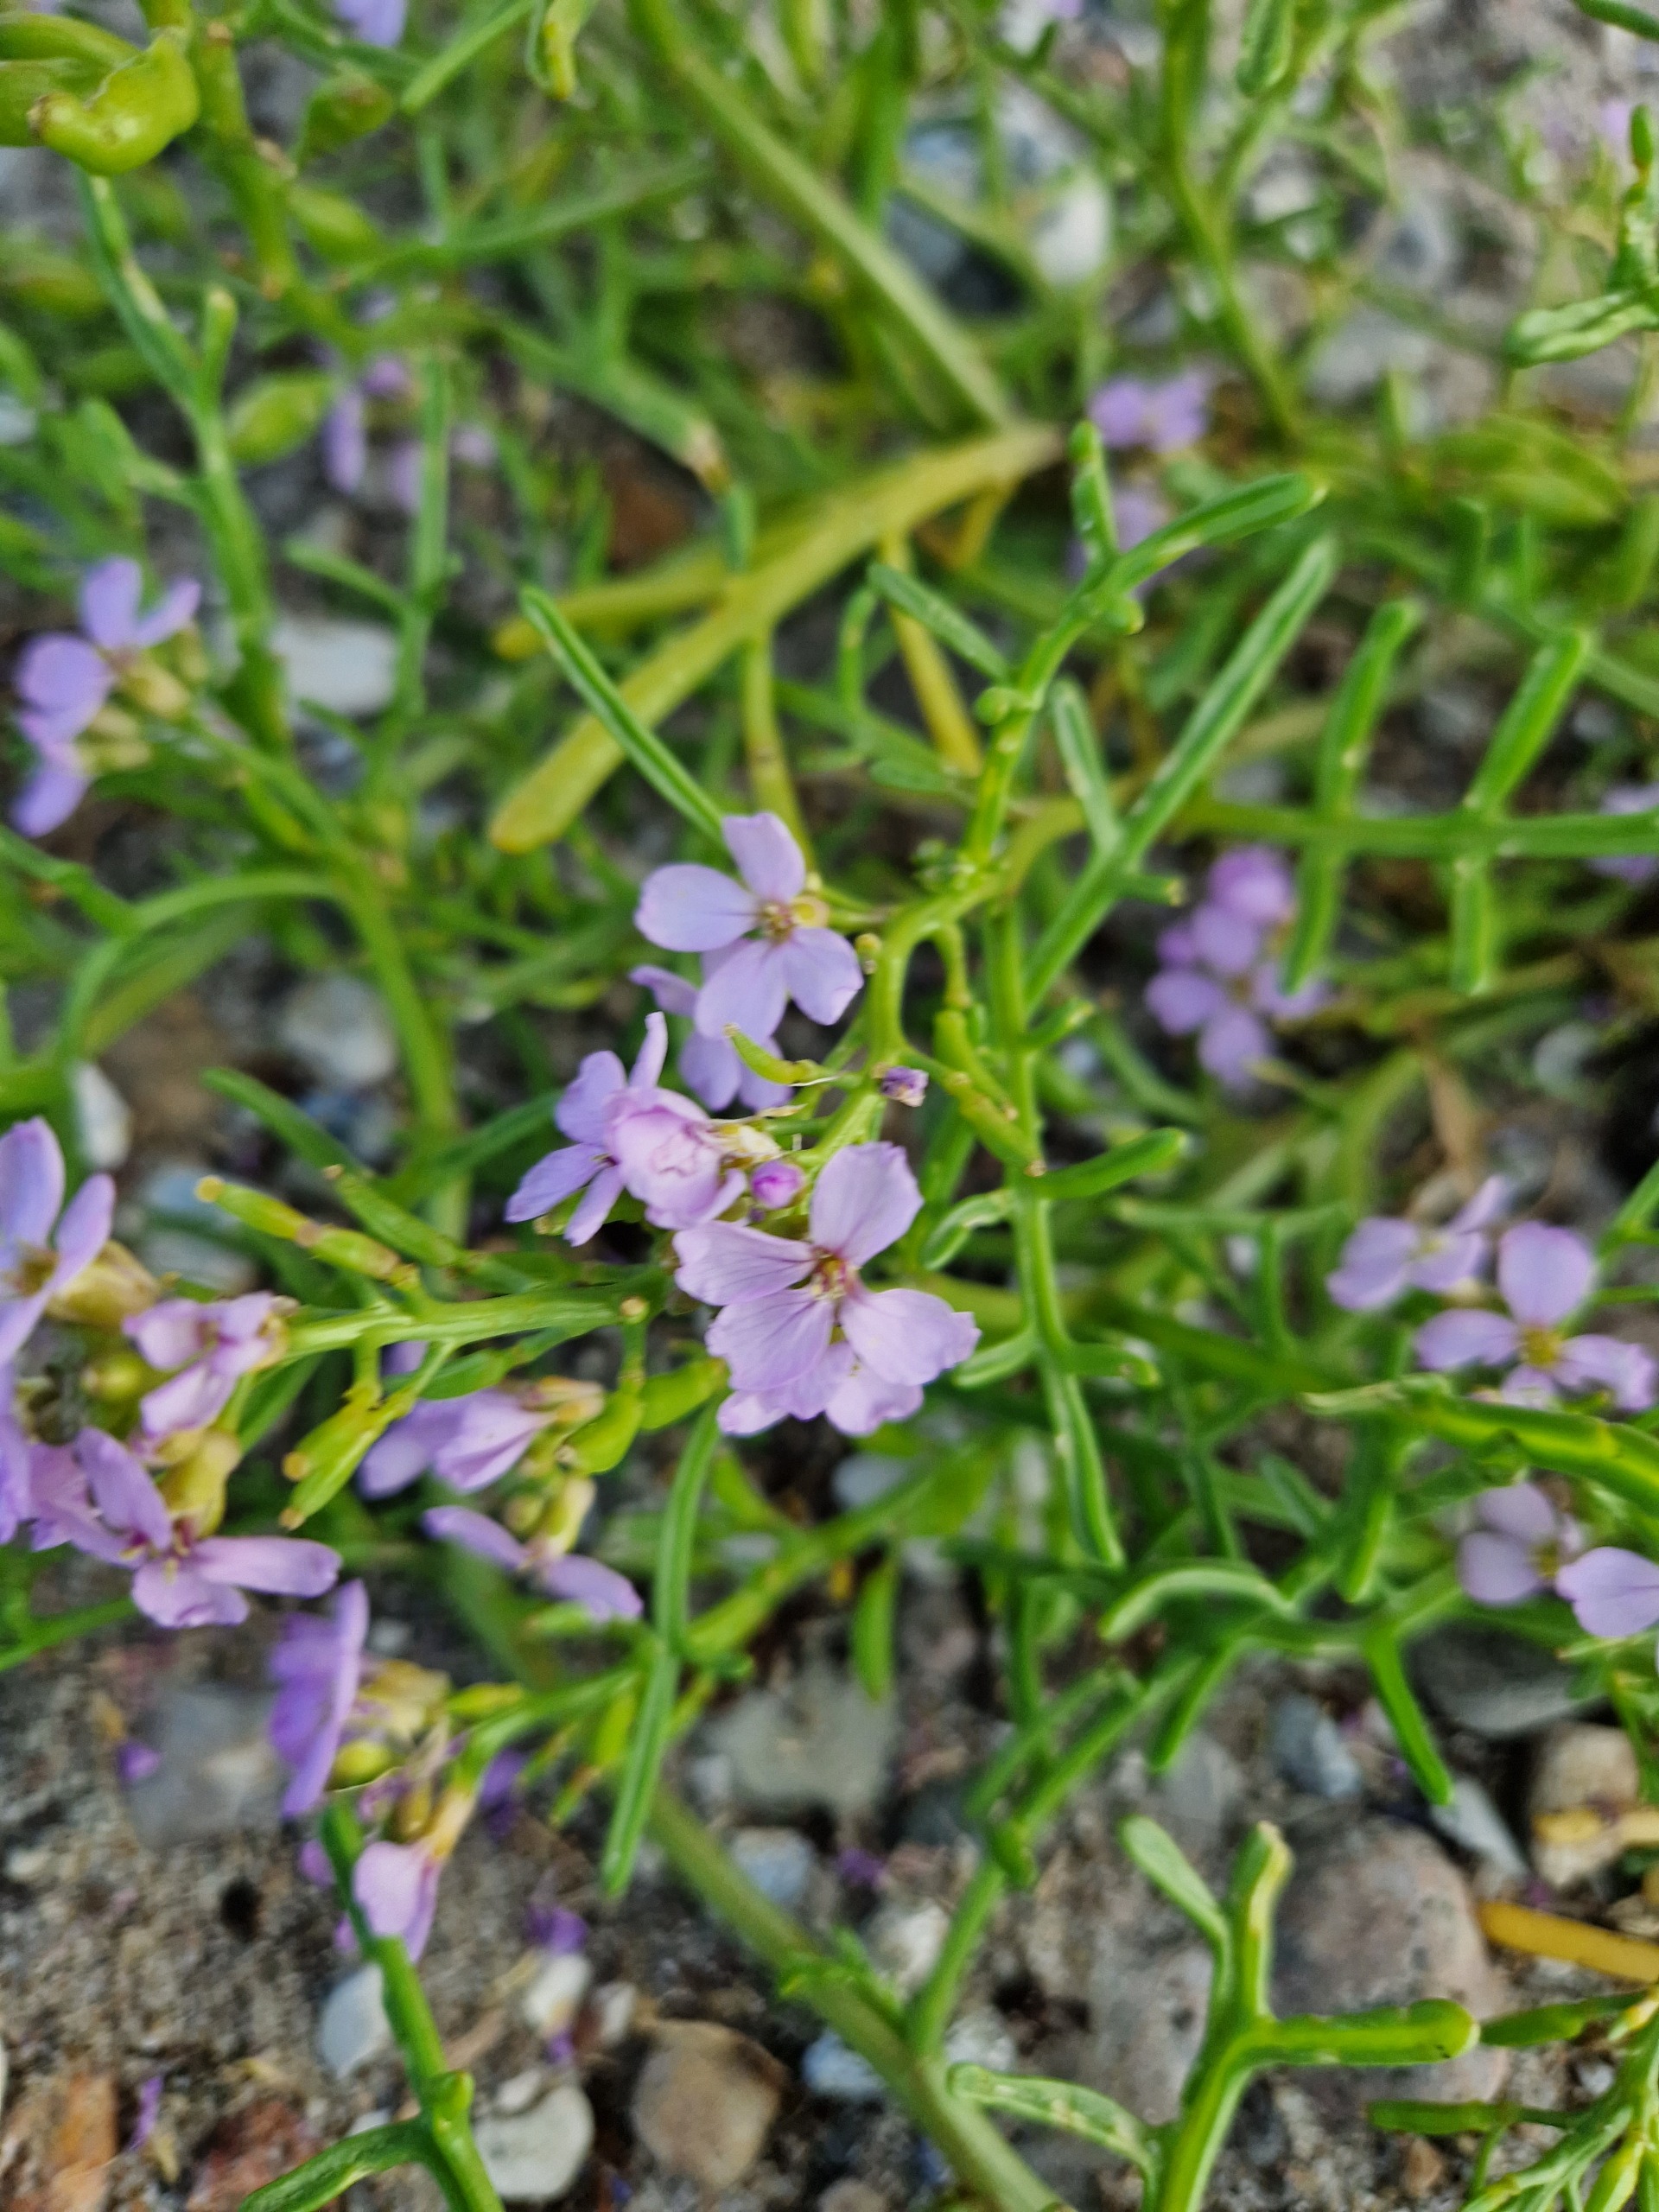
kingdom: Plantae
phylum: Tracheophyta
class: Magnoliopsida
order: Brassicales
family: Brassicaceae
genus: Cakile
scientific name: Cakile maritima
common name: Strandsennep
